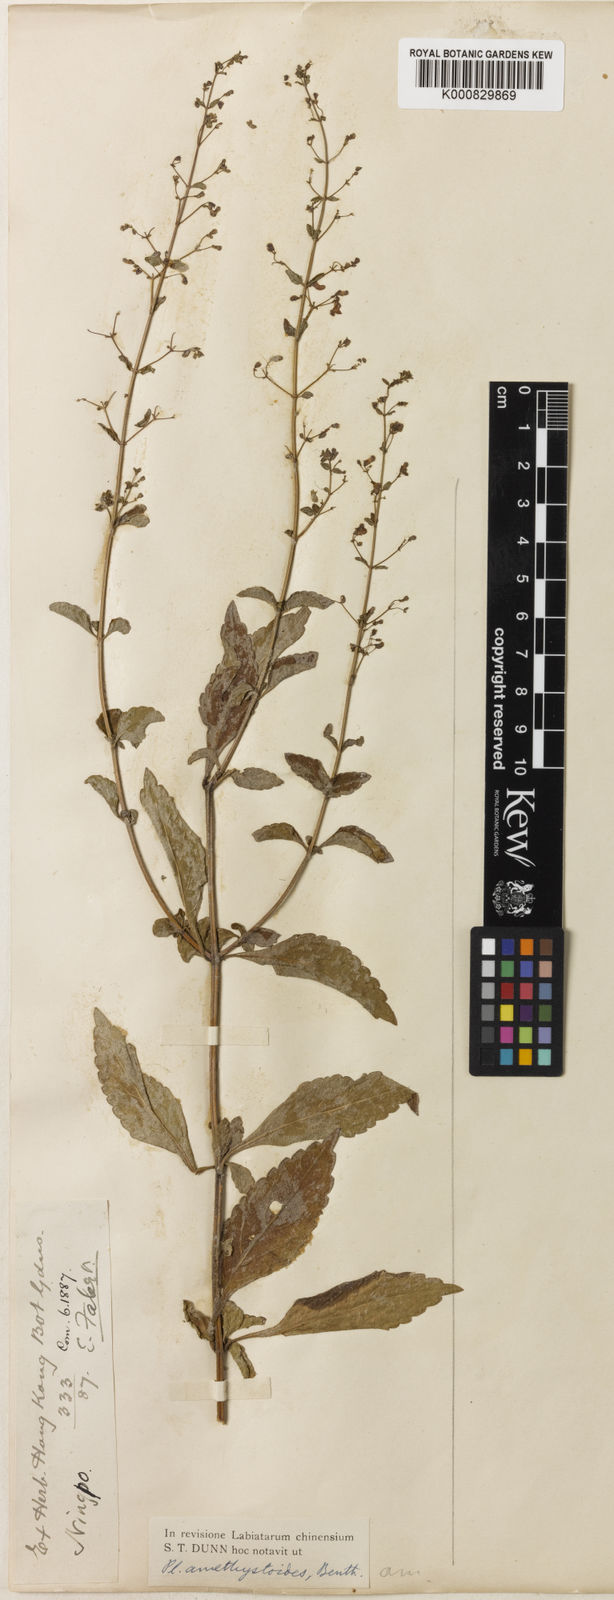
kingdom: Plantae
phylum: Tracheophyta
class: Magnoliopsida
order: Lamiales
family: Lamiaceae
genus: Isodon
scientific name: Isodon amethystoides
